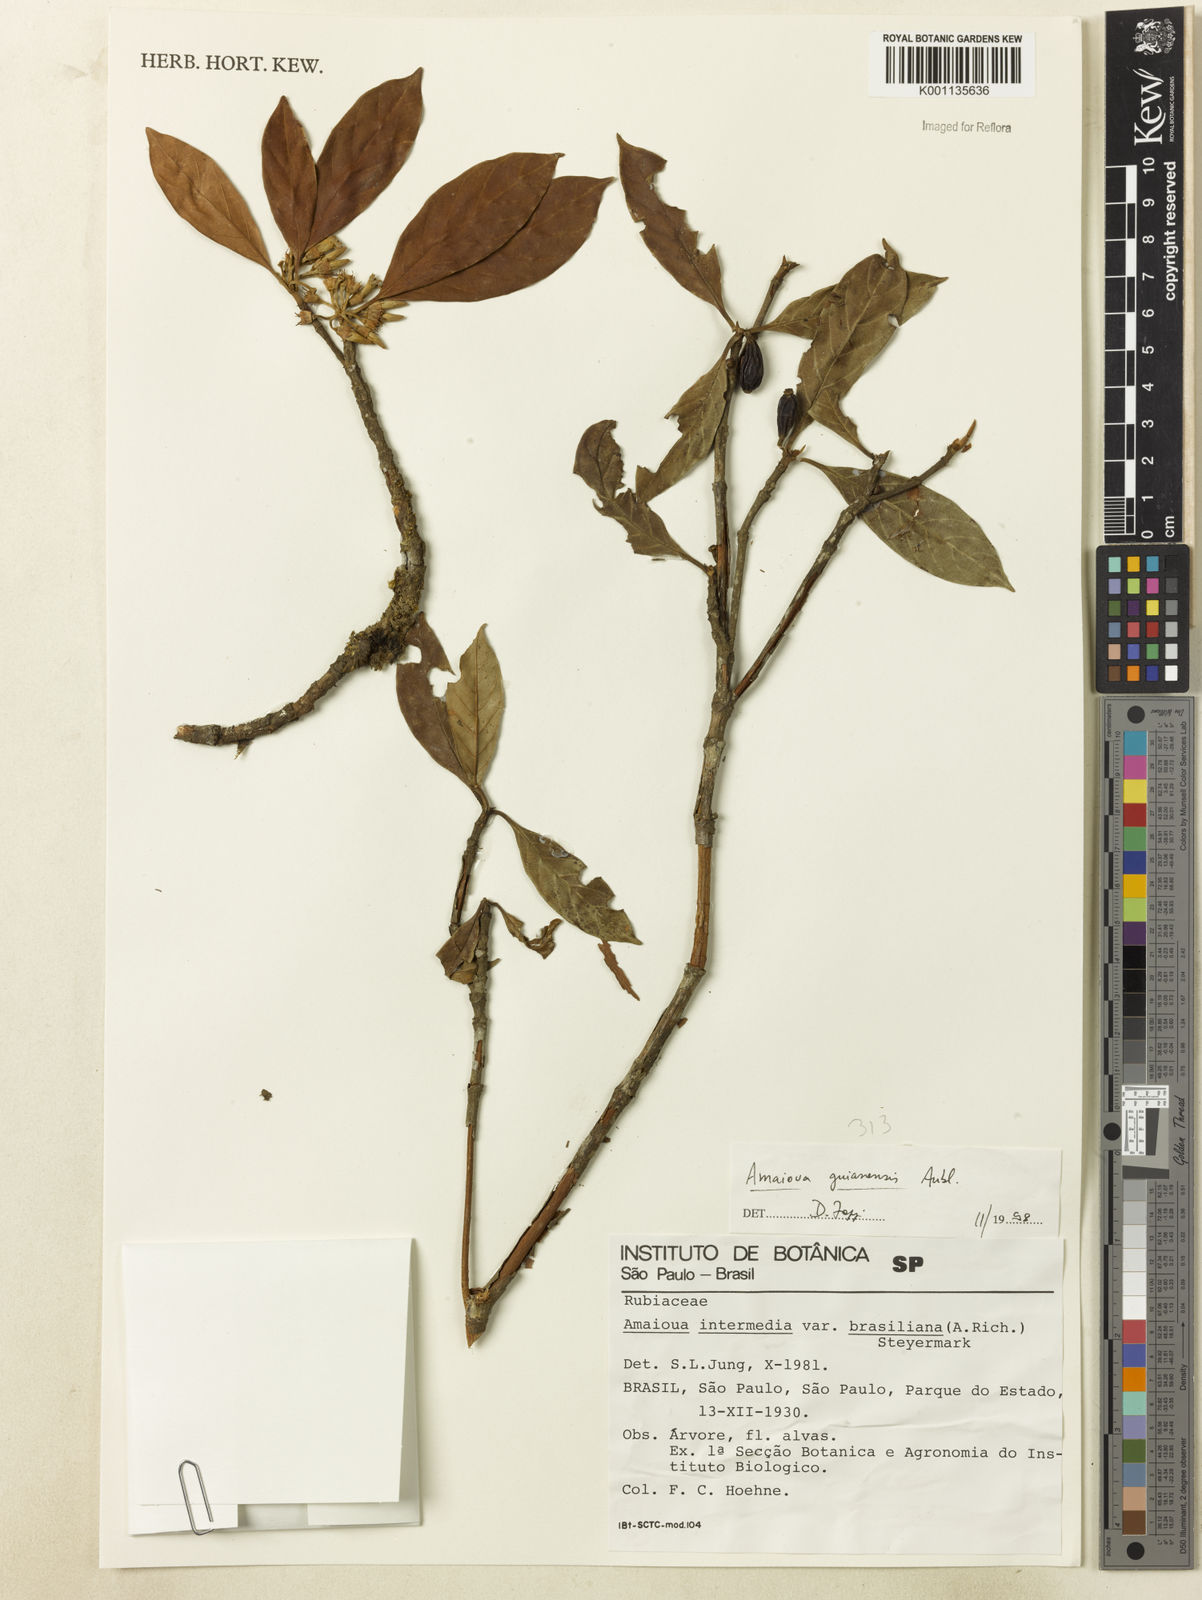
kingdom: Plantae
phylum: Tracheophyta
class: Magnoliopsida
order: Gentianales
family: Rubiaceae
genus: Amaioua
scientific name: Amaioua intermedia
